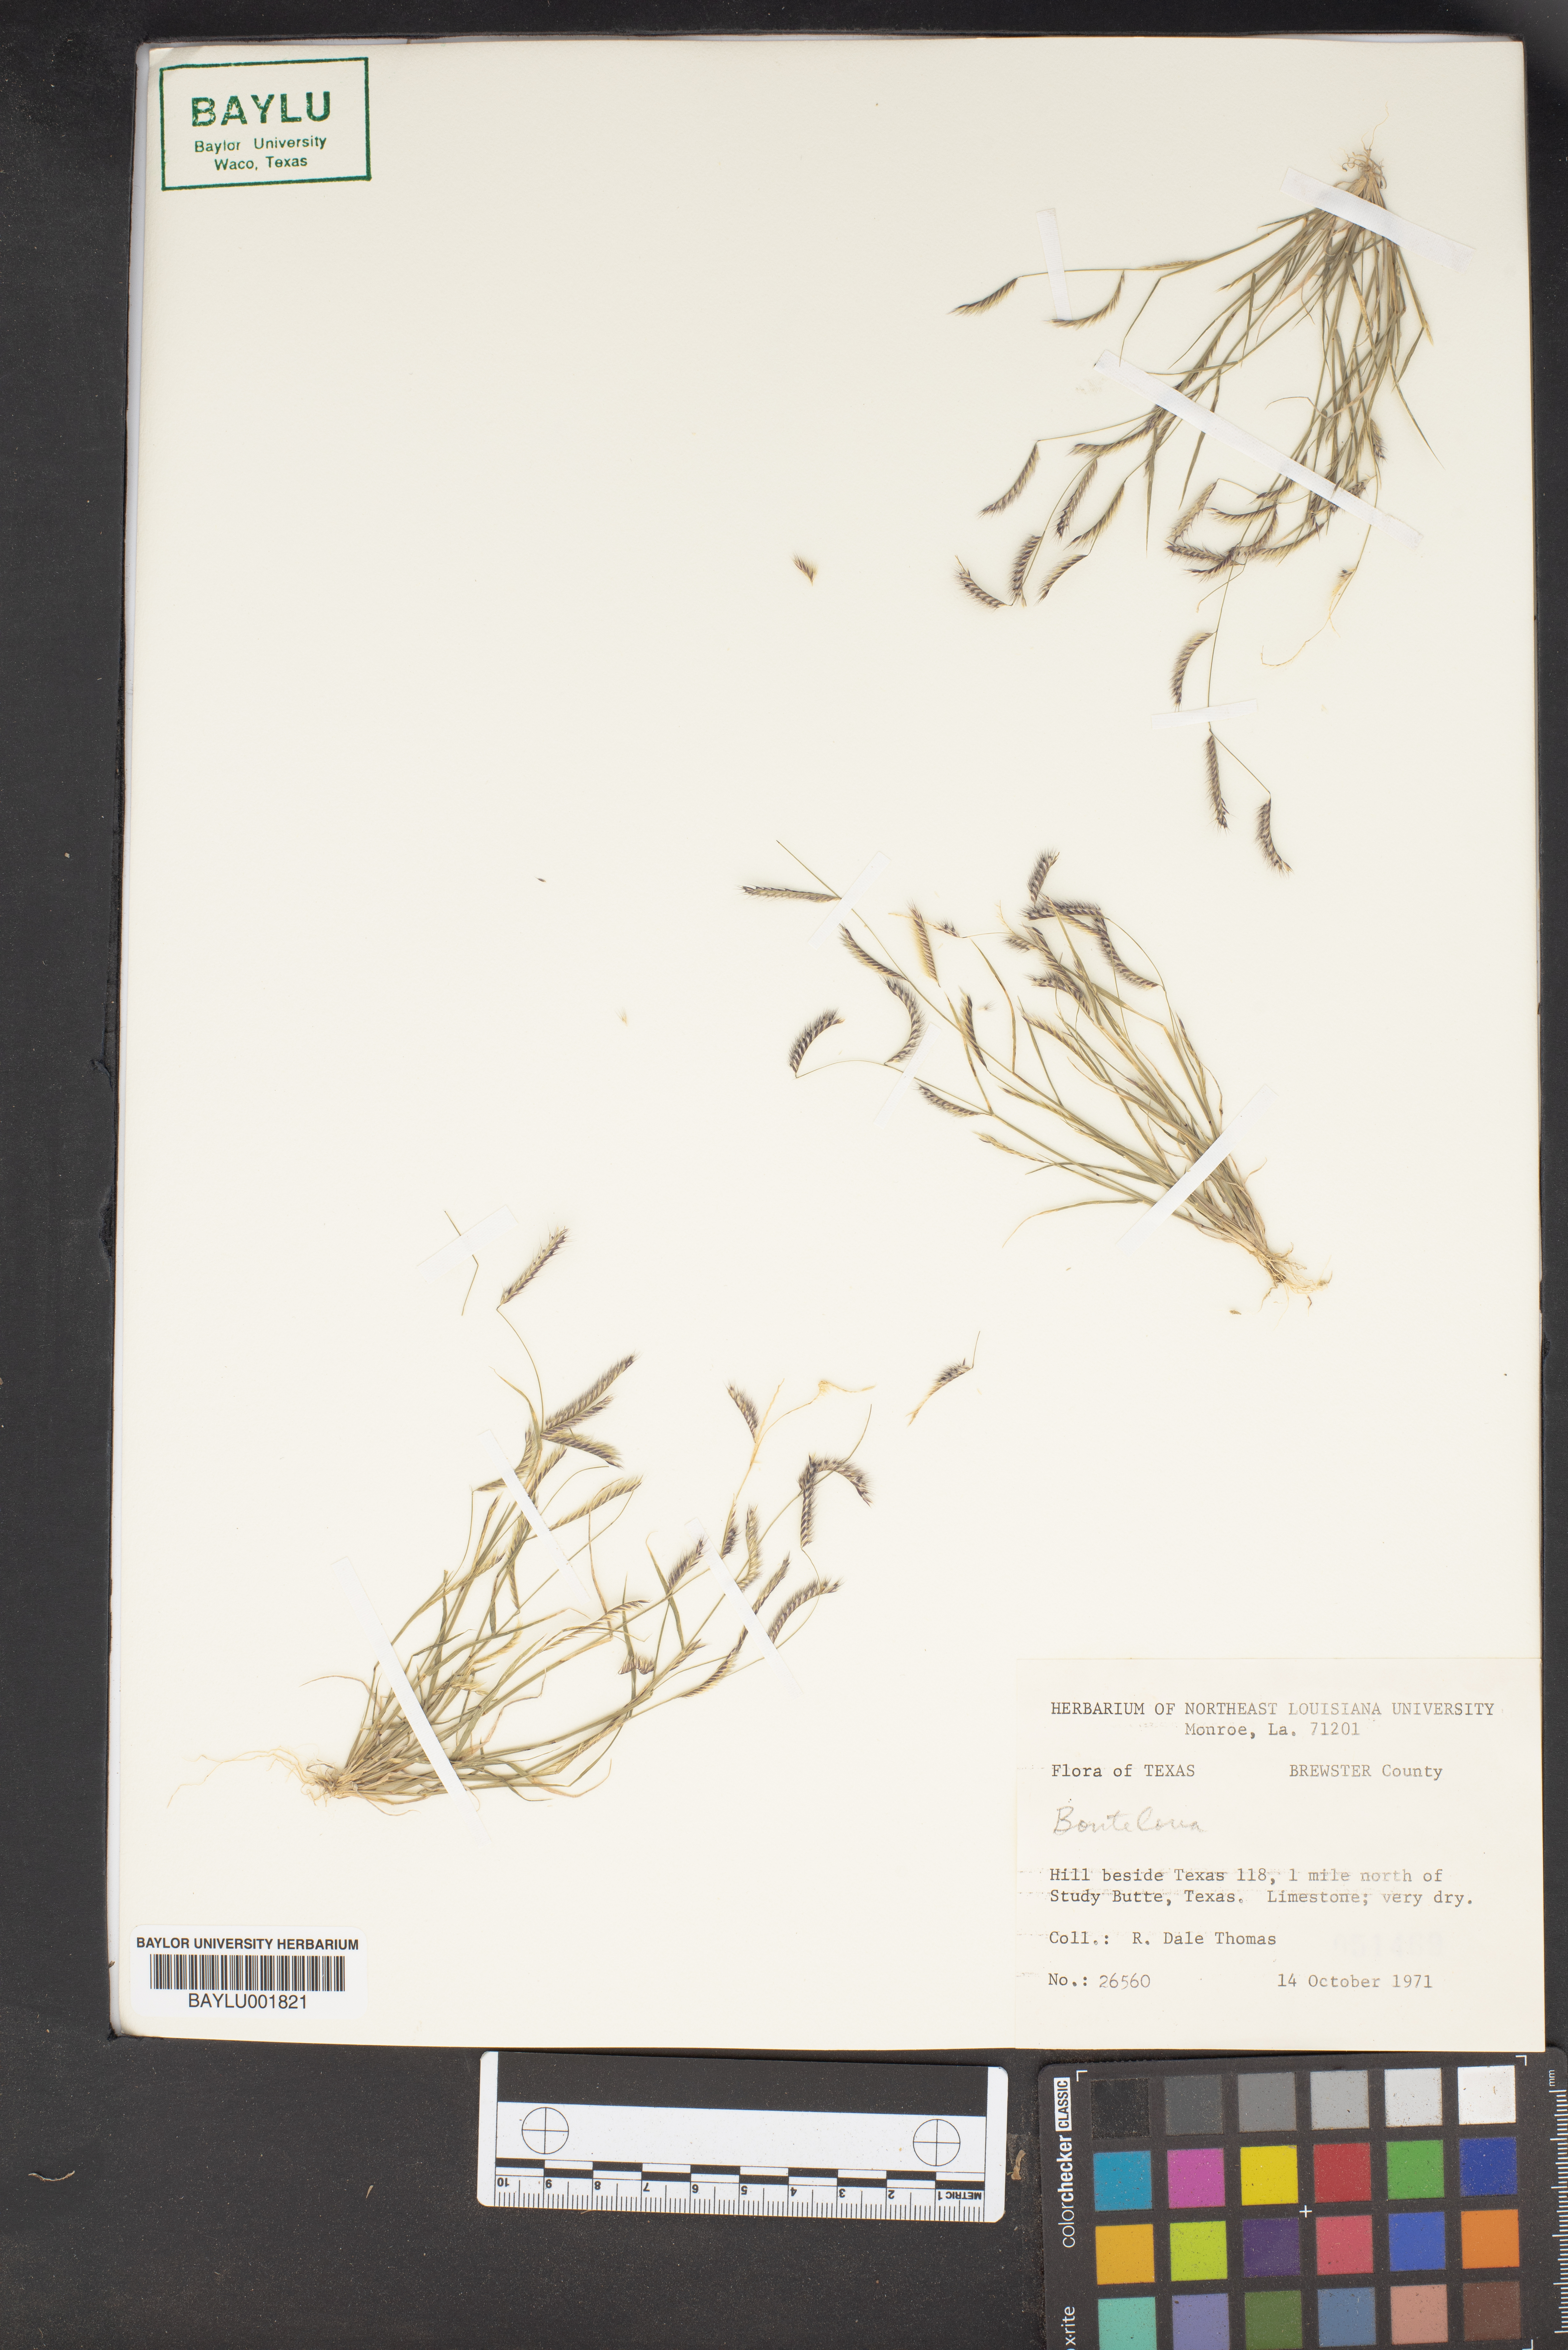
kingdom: Plantae
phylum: Tracheophyta
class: Liliopsida
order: Poales
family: Poaceae
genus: Bouteloua
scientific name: Bouteloua
